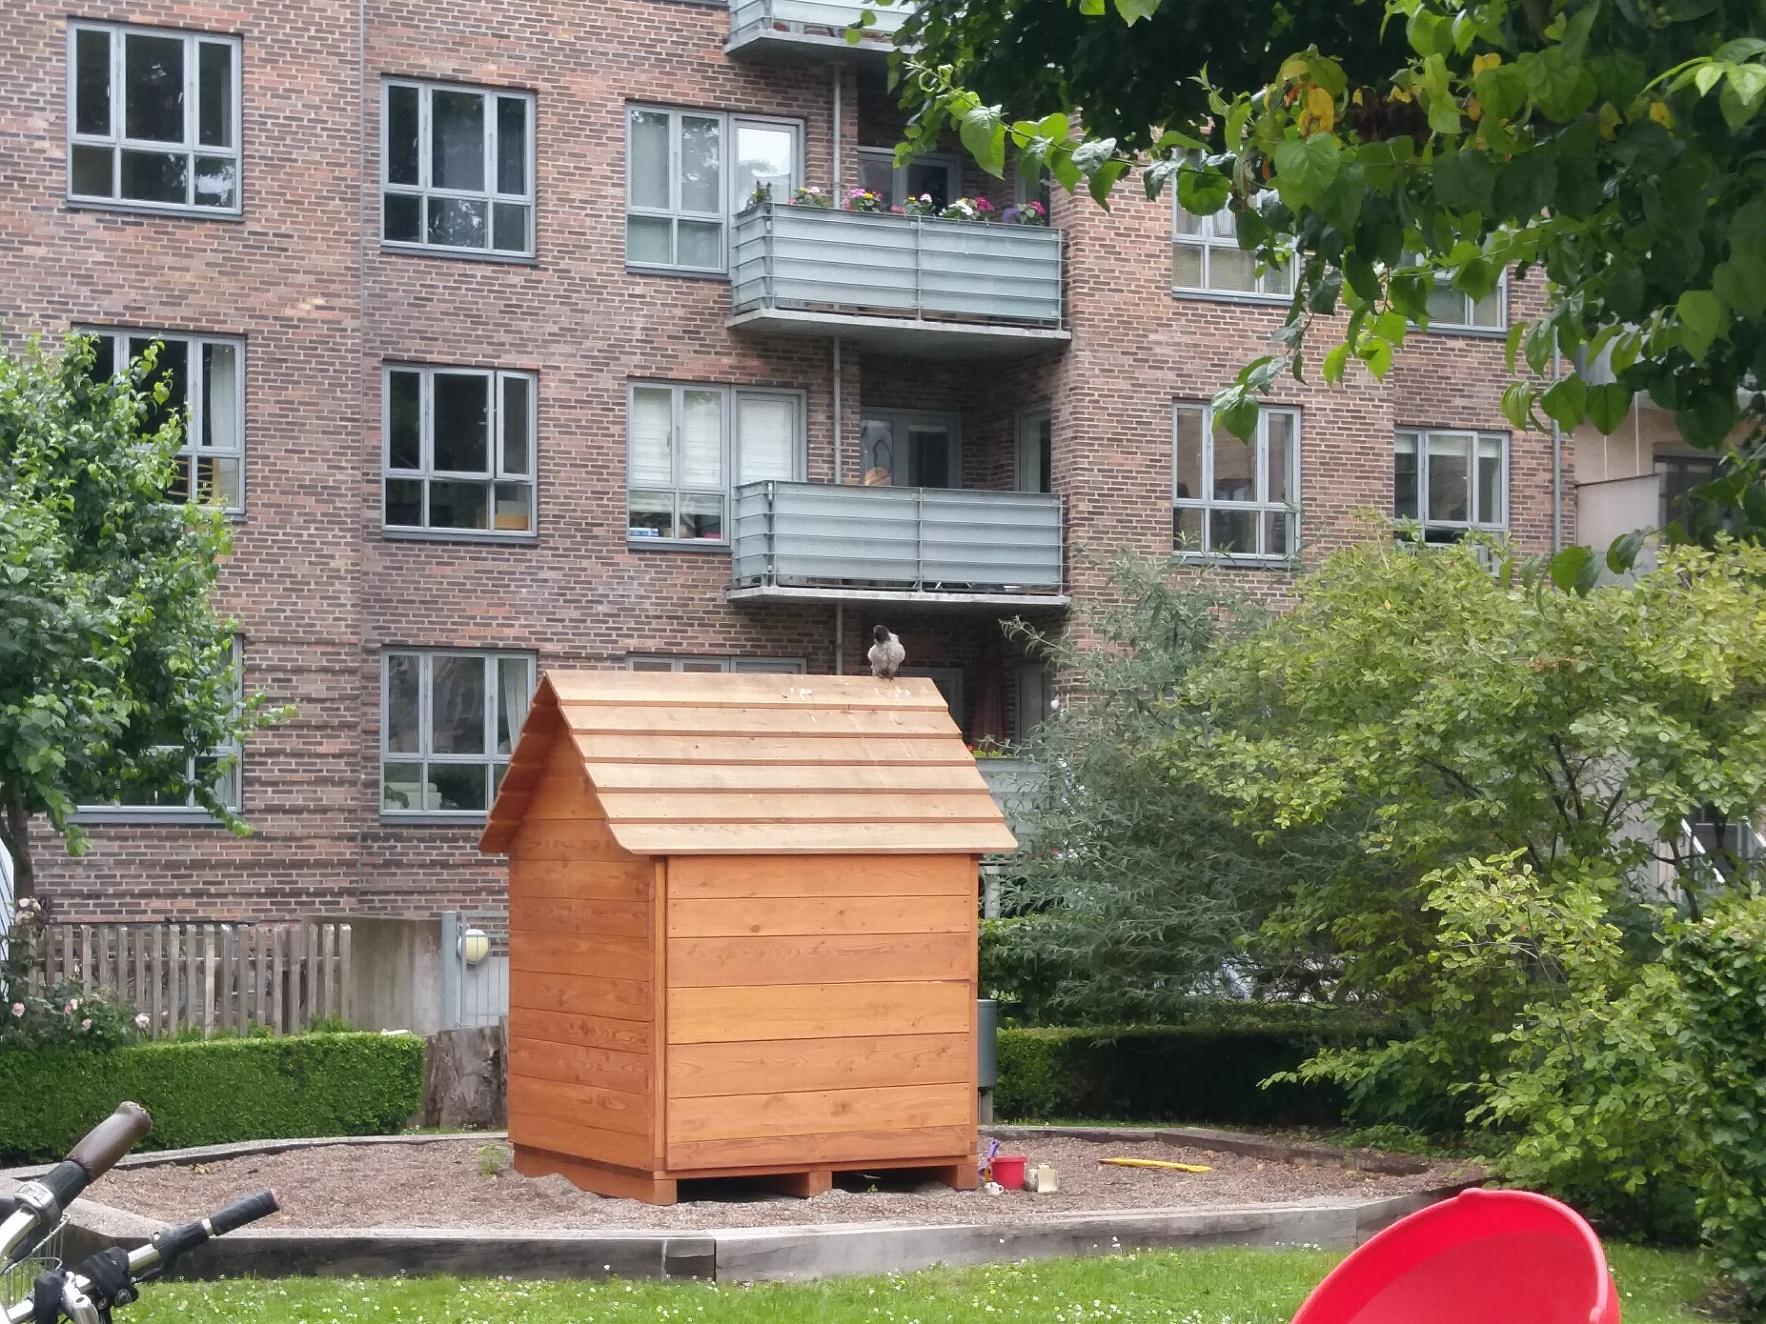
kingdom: Animalia
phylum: Chordata
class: Aves
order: Passeriformes
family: Corvidae
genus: Corvus
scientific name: Corvus cornix
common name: Gråkrage
